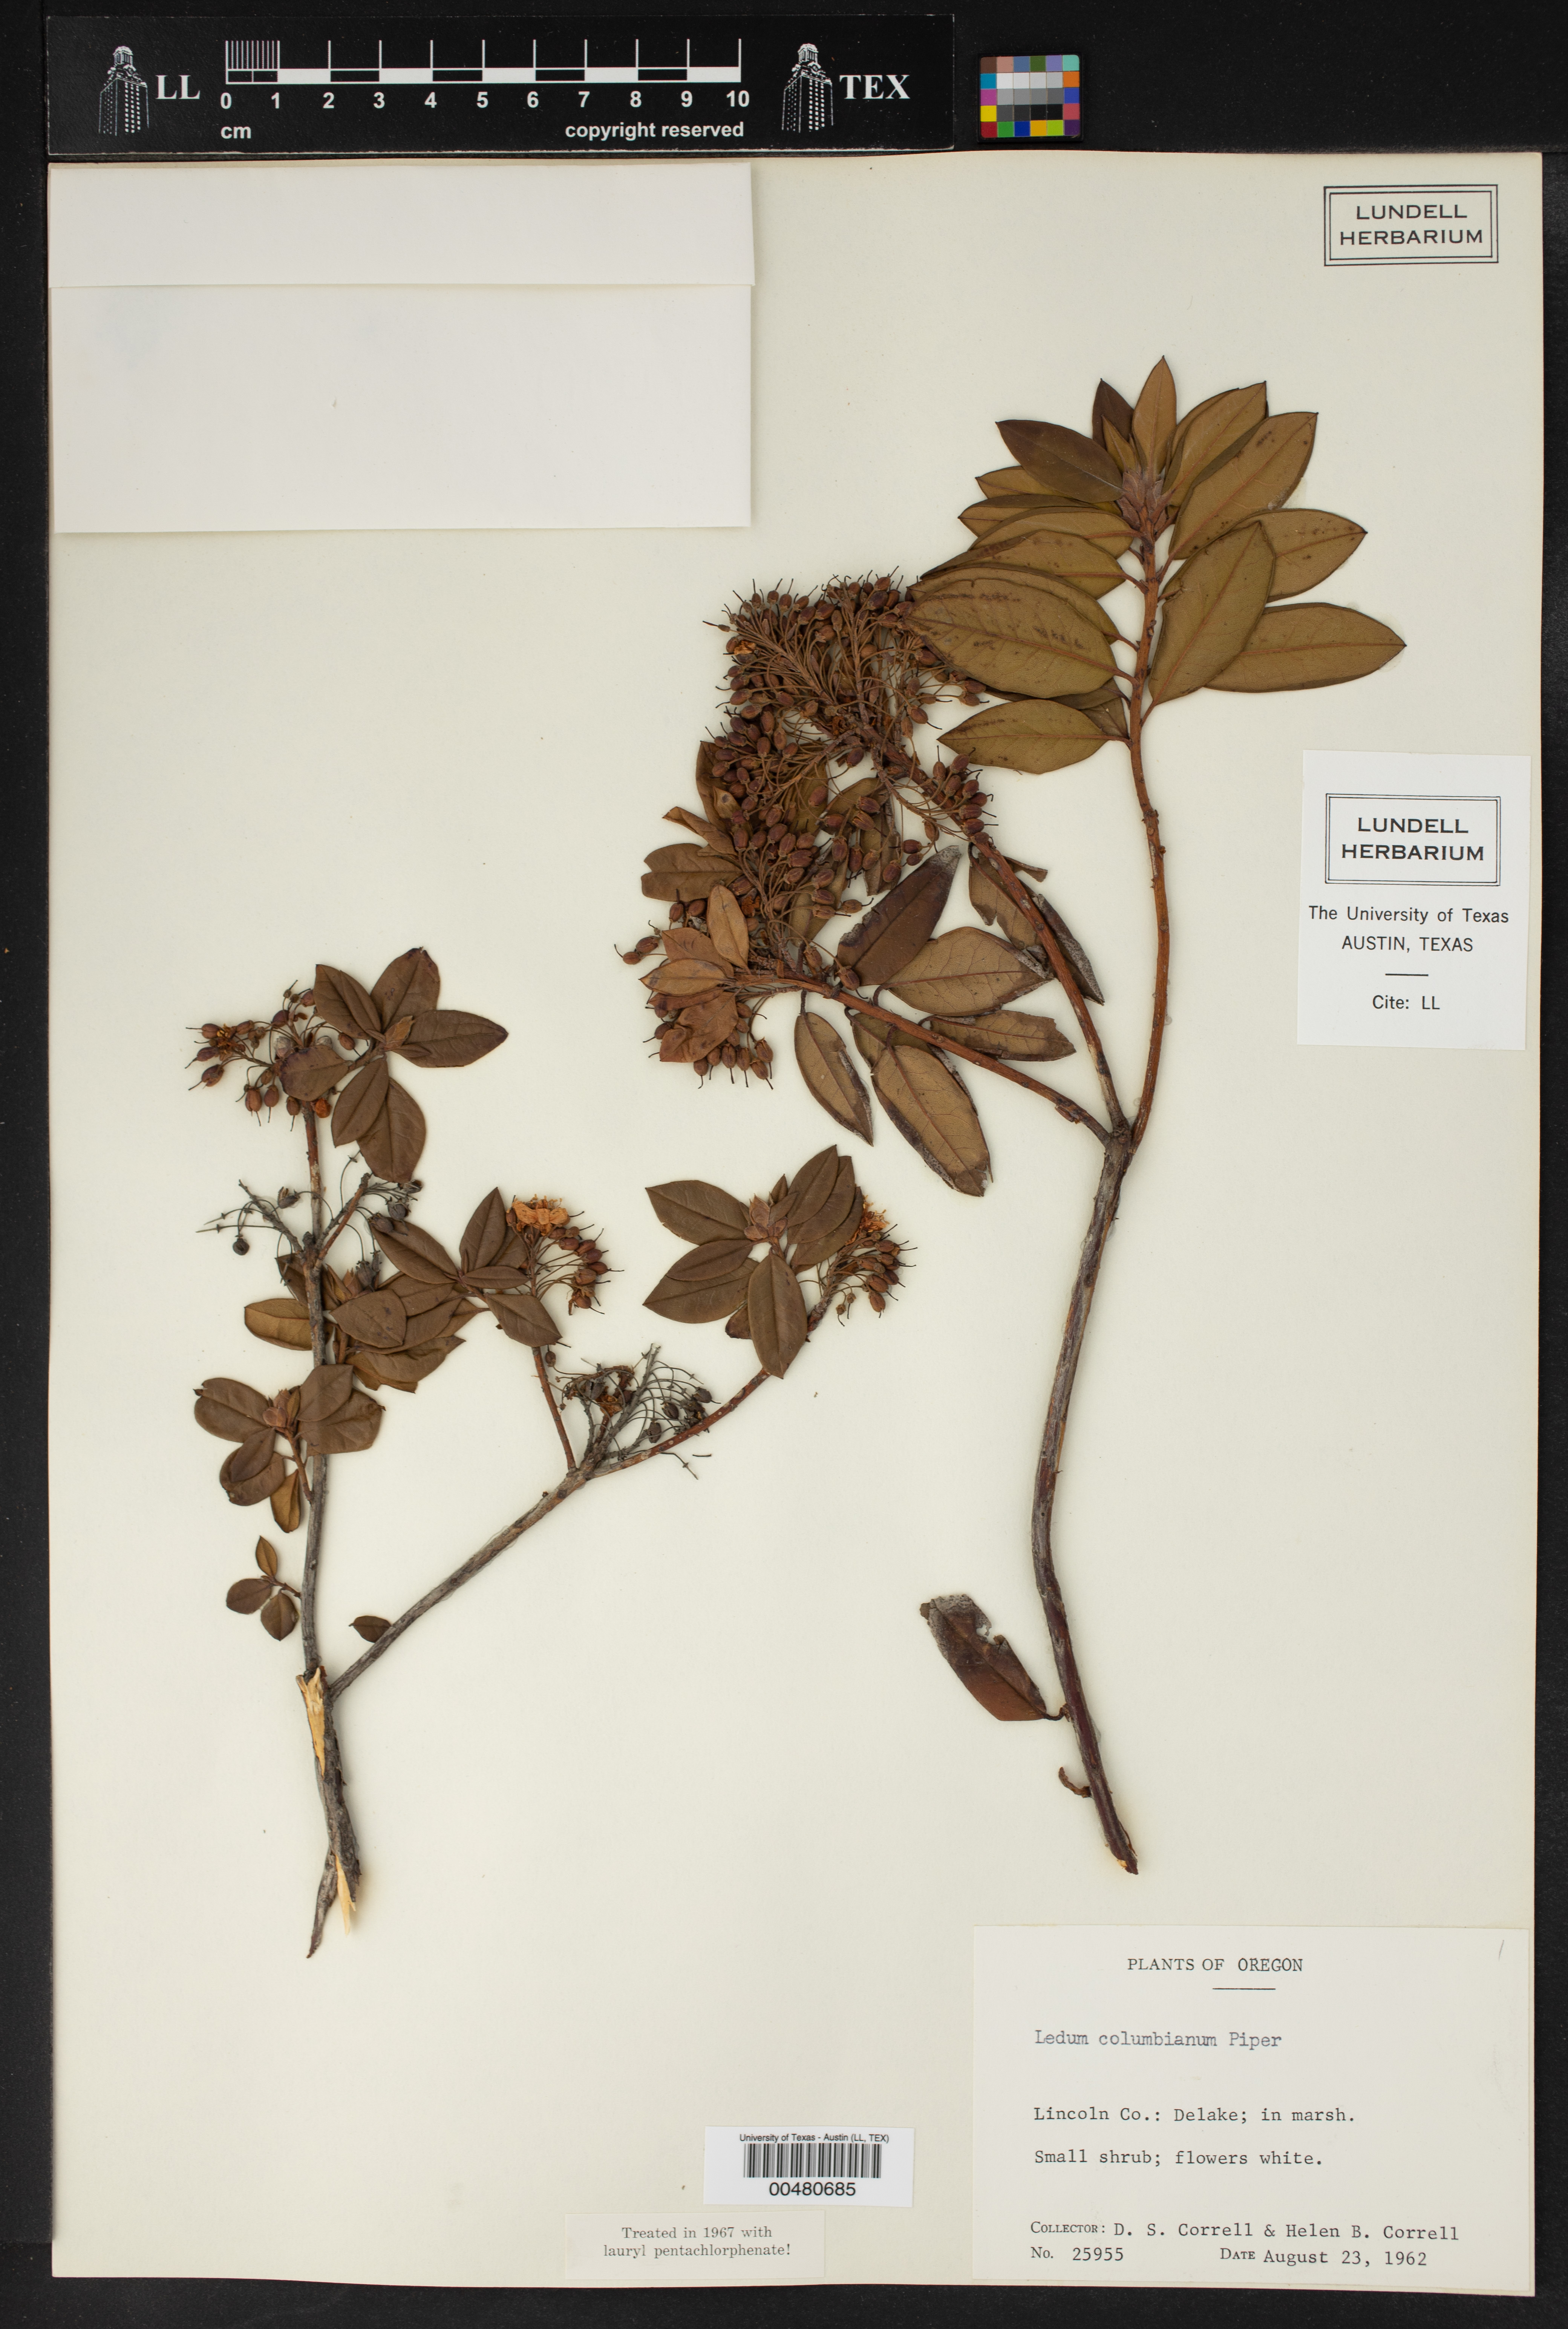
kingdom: Plantae
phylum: Tracheophyta
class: Magnoliopsida
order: Ericales
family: Ericaceae
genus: Rhododendron
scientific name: Rhododendron columbianum
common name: Western labrador tea
